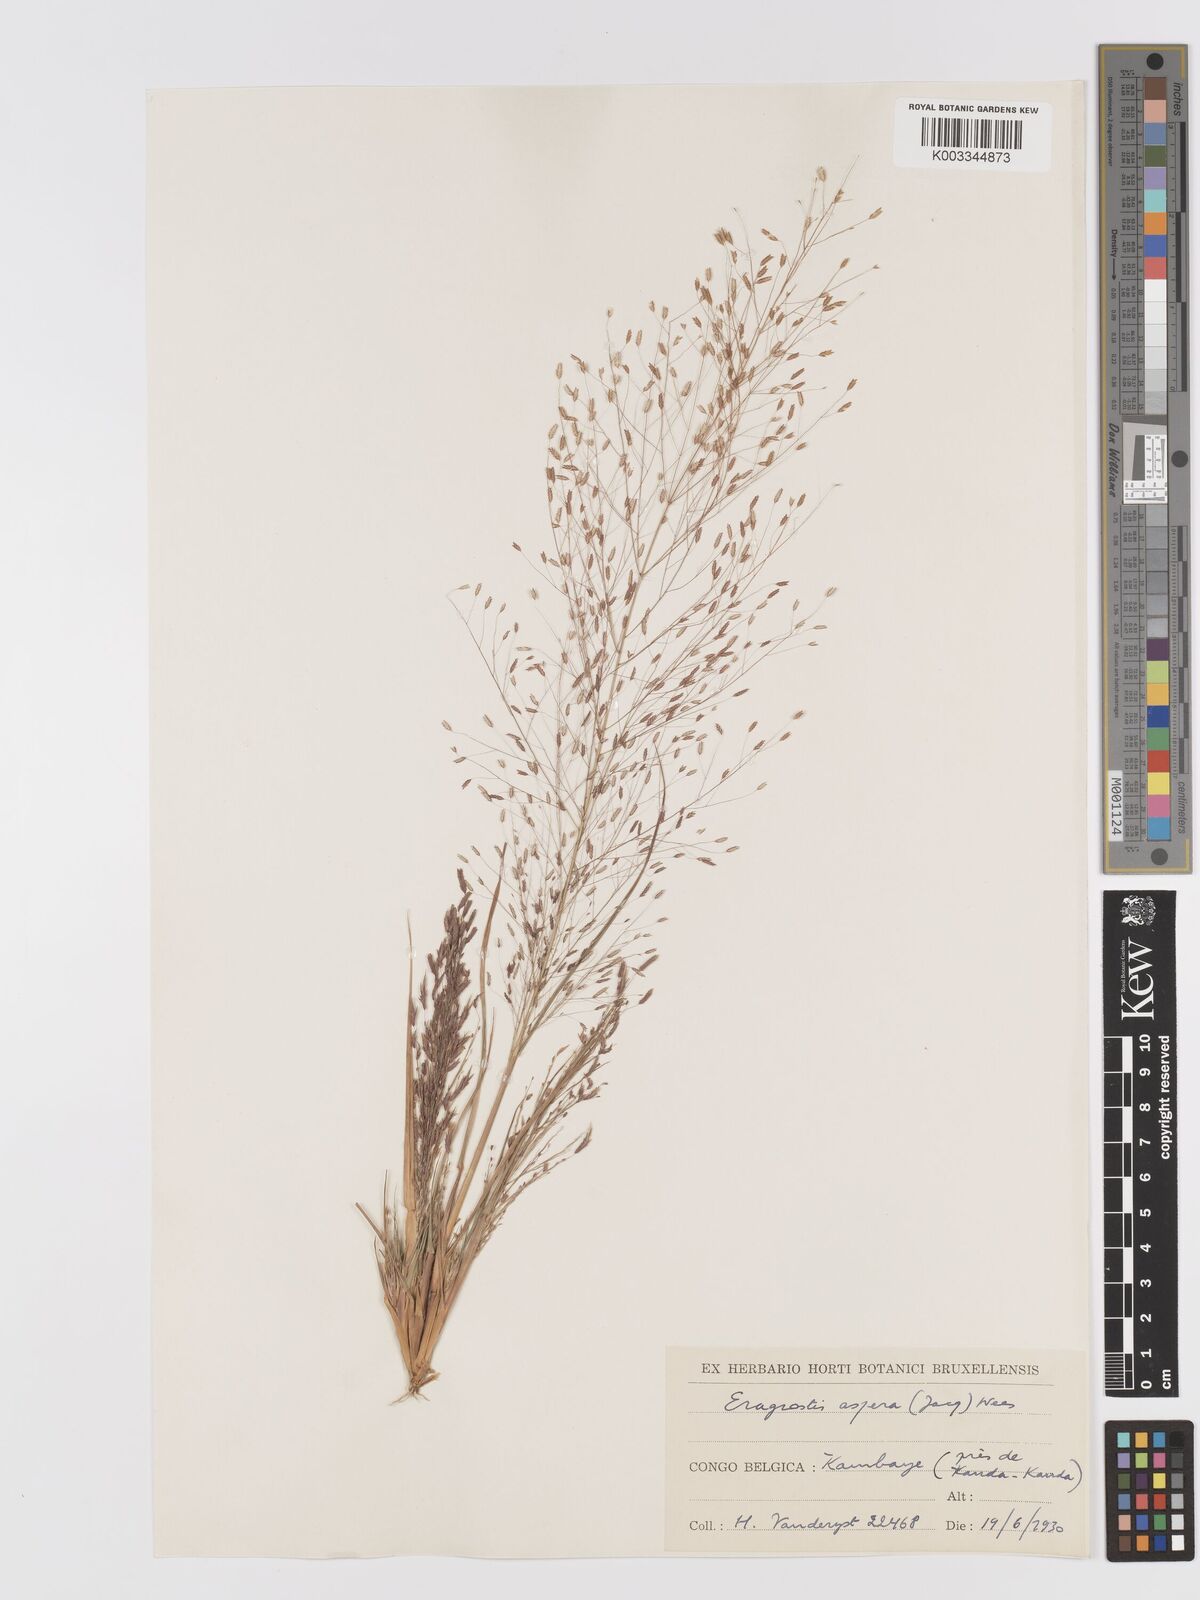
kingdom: Plantae
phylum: Tracheophyta
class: Liliopsida
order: Poales
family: Poaceae
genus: Eragrostis
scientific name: Eragrostis aspera
